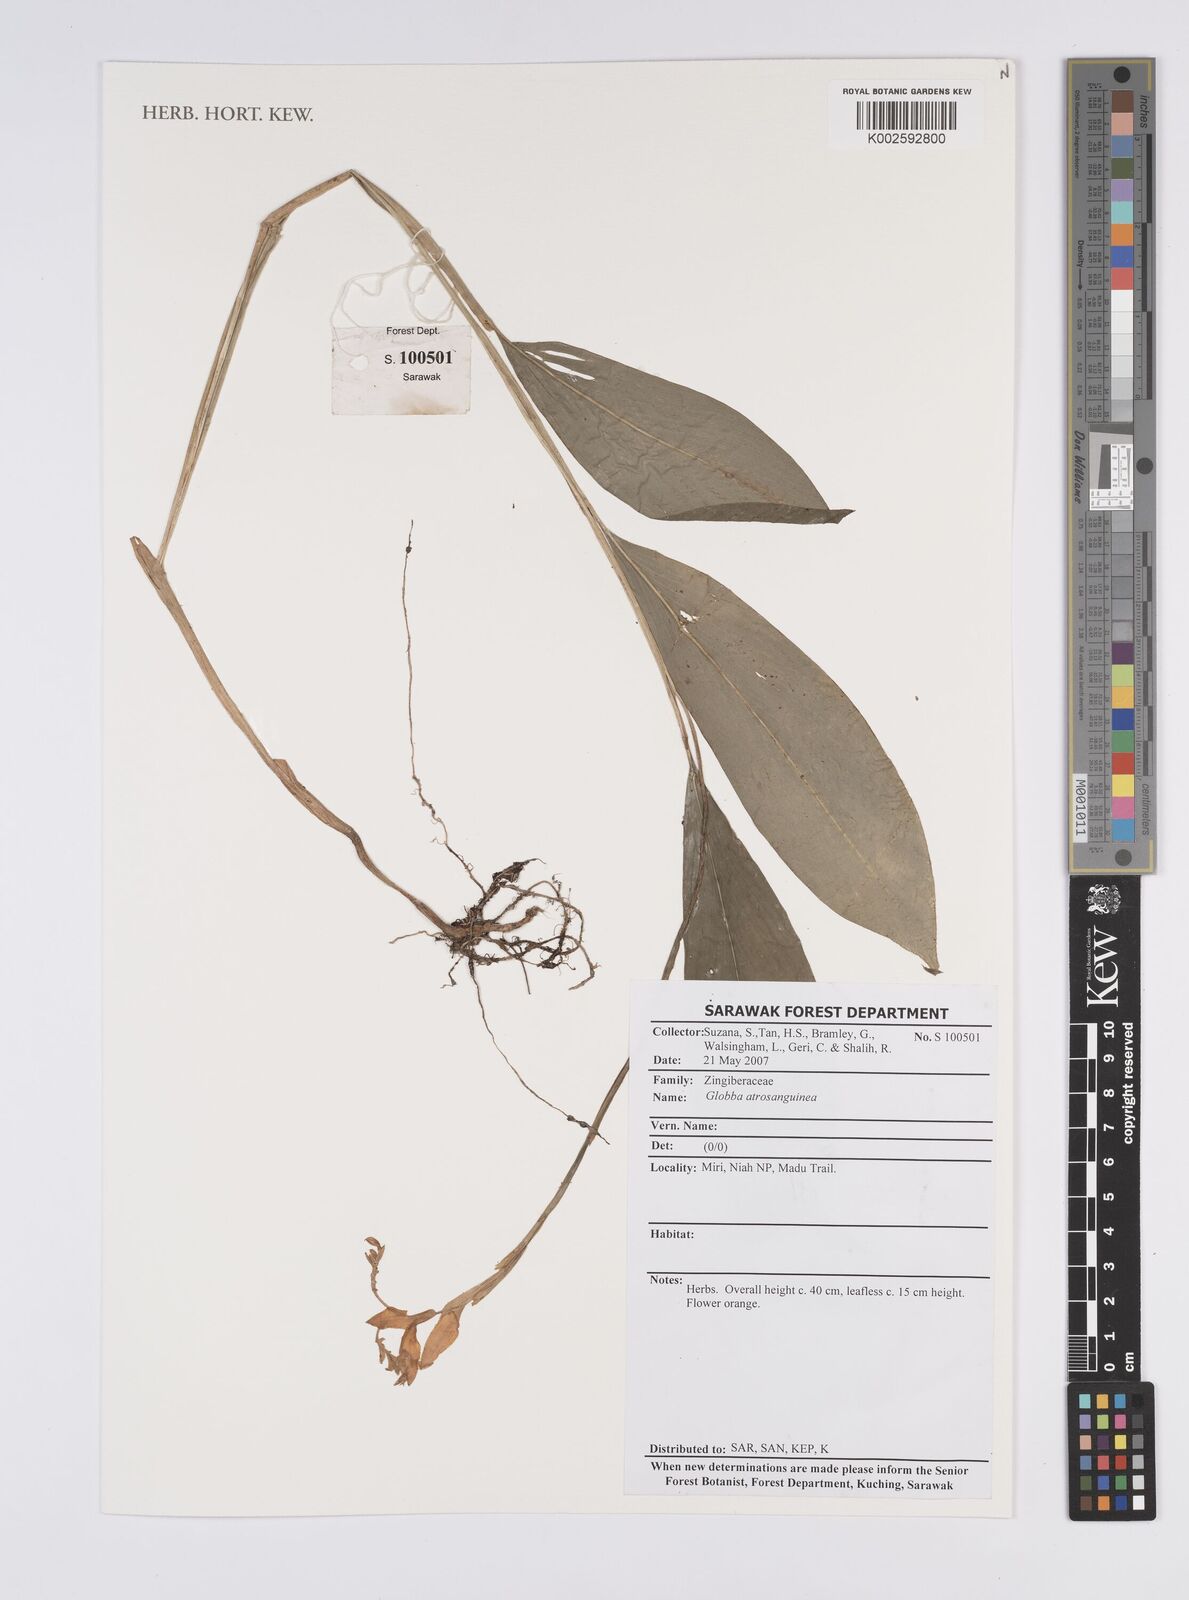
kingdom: Plantae
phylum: Tracheophyta
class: Liliopsida
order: Zingiberales
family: Zingiberaceae
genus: Globba
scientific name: Globba atrosanguinea
